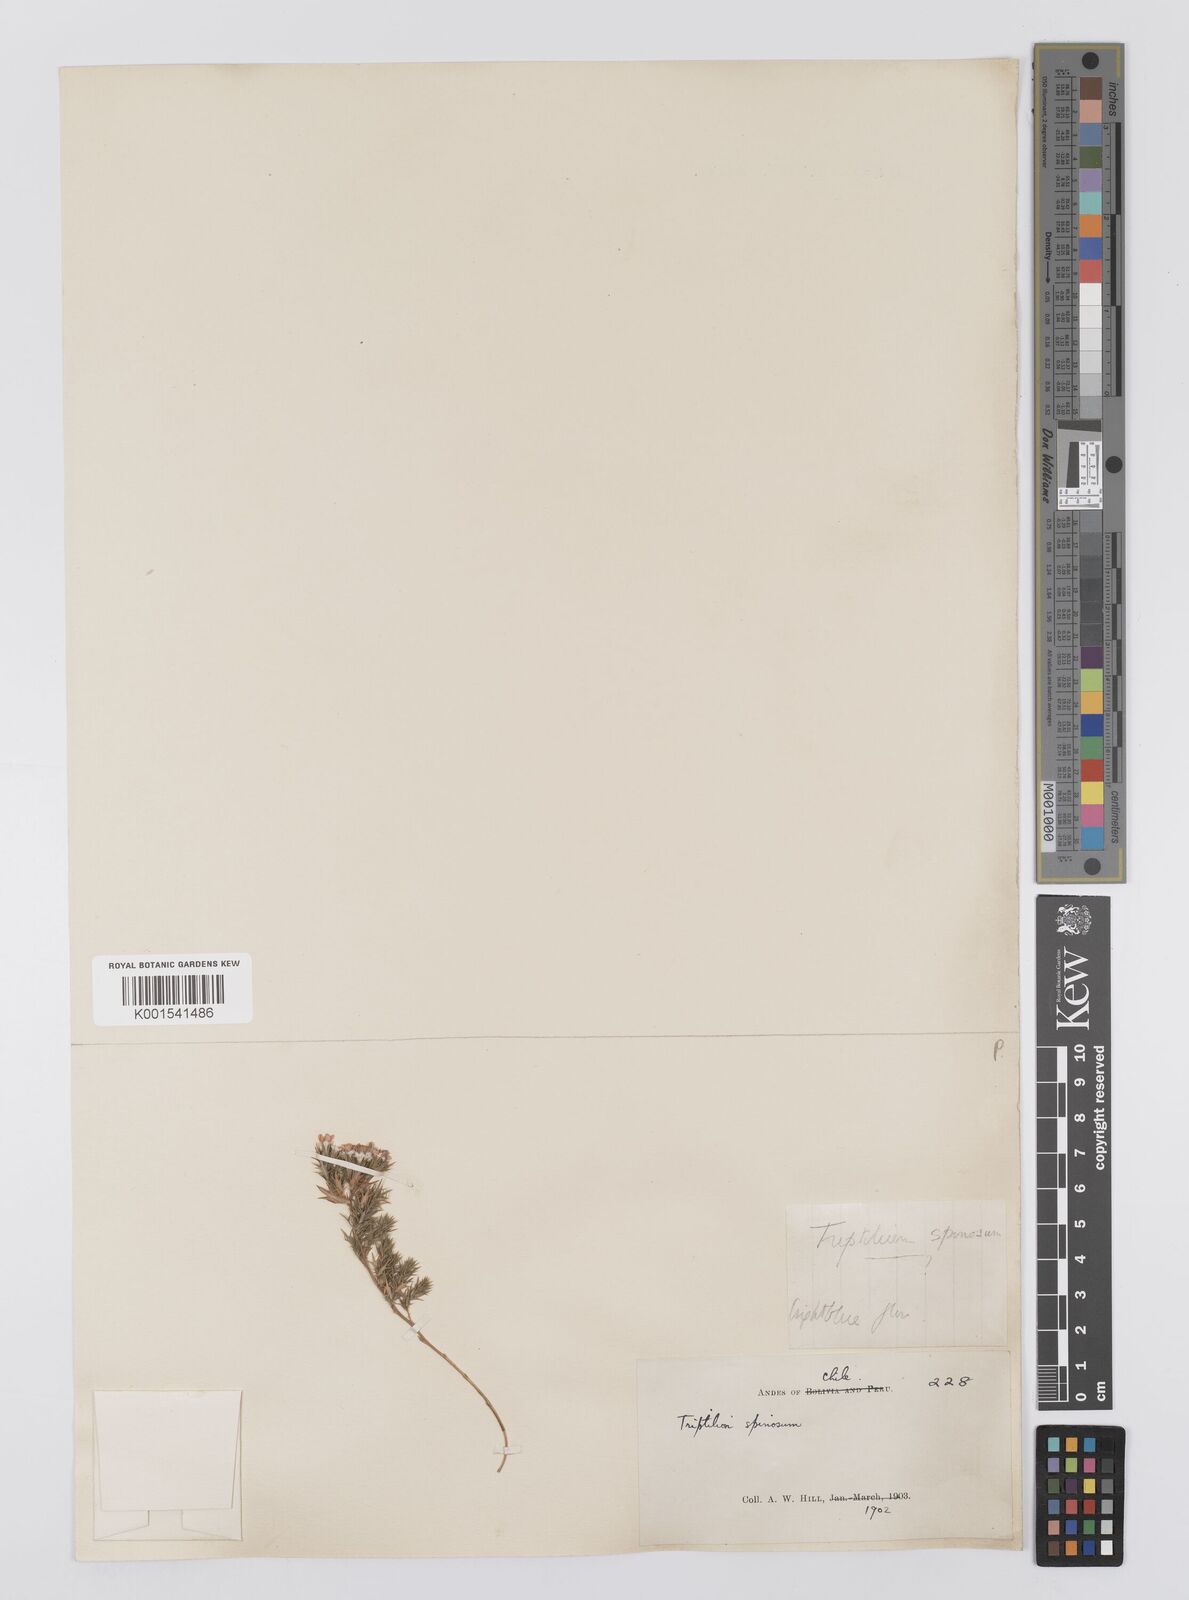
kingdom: Plantae
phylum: Tracheophyta
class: Magnoliopsida
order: Asterales
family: Asteraceae
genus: Triptilion
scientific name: Triptilion spinosum
